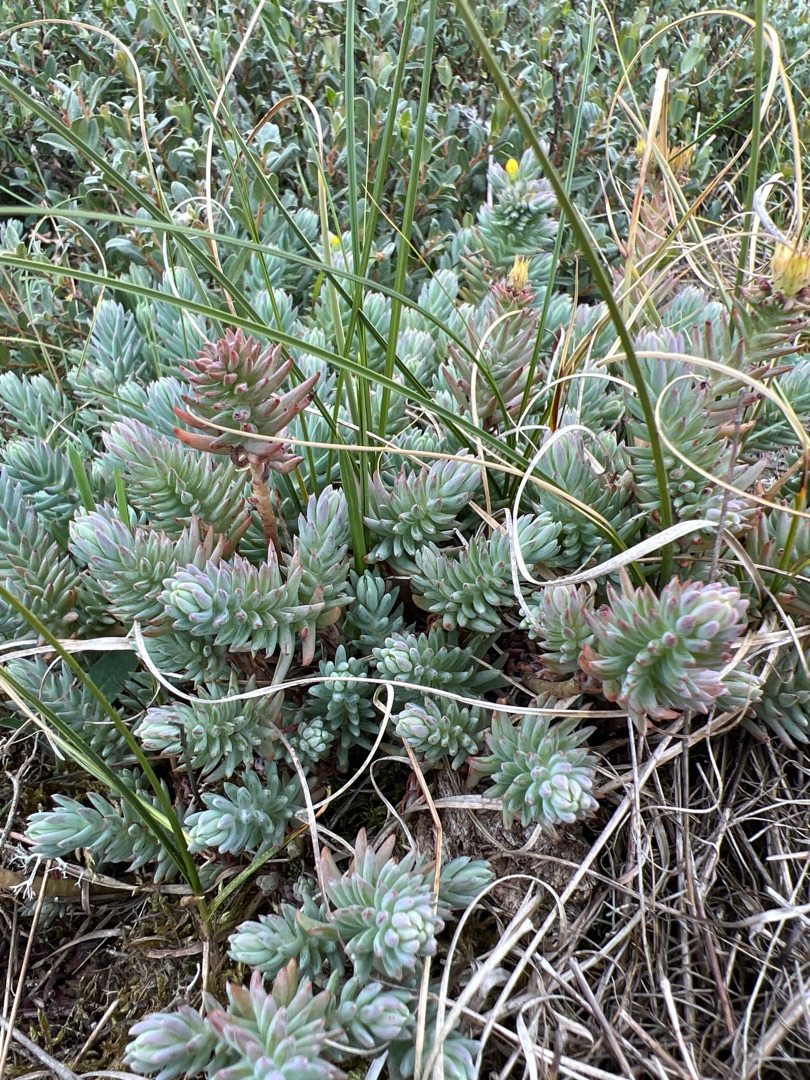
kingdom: Plantae
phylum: Tracheophyta
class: Magnoliopsida
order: Saxifragales
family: Crassulaceae
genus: Petrosedum
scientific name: Petrosedum rupestre
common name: Bjerg-stenurt
